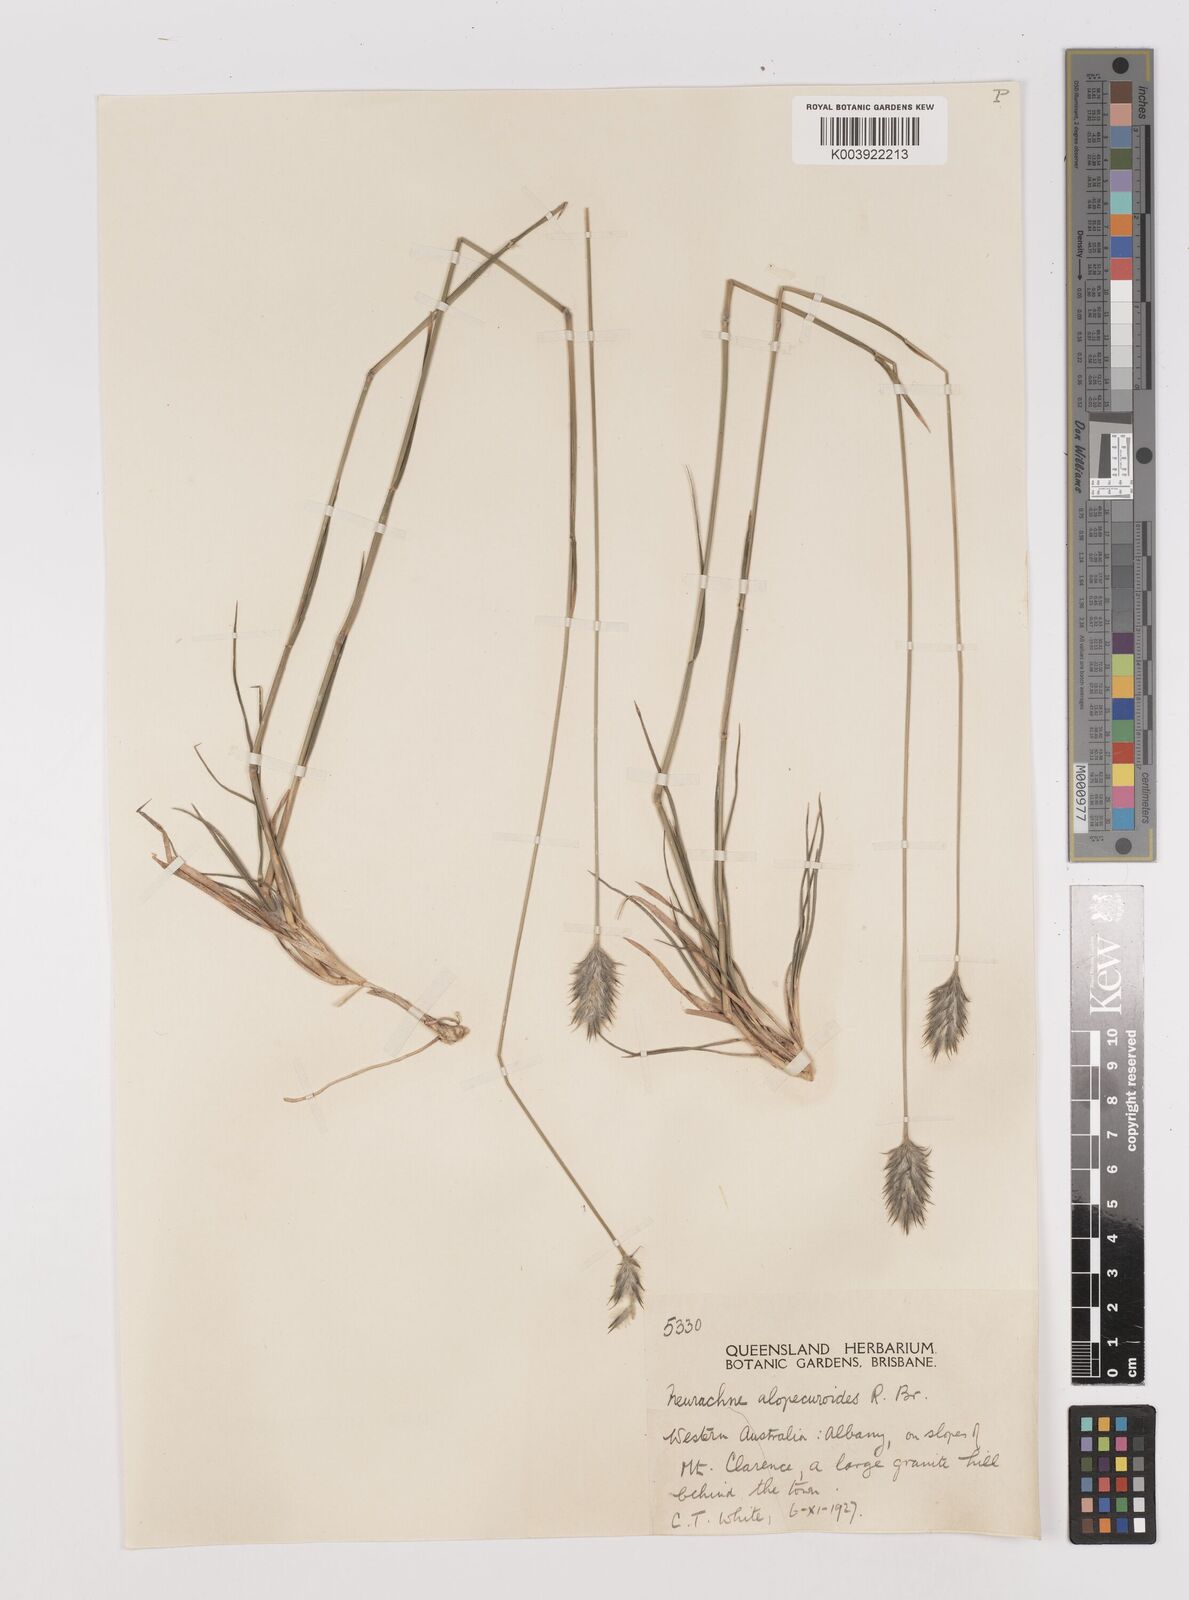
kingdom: Plantae
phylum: Tracheophyta
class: Liliopsida
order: Poales
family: Poaceae
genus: Neurachne
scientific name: Neurachne alopecuroidea
